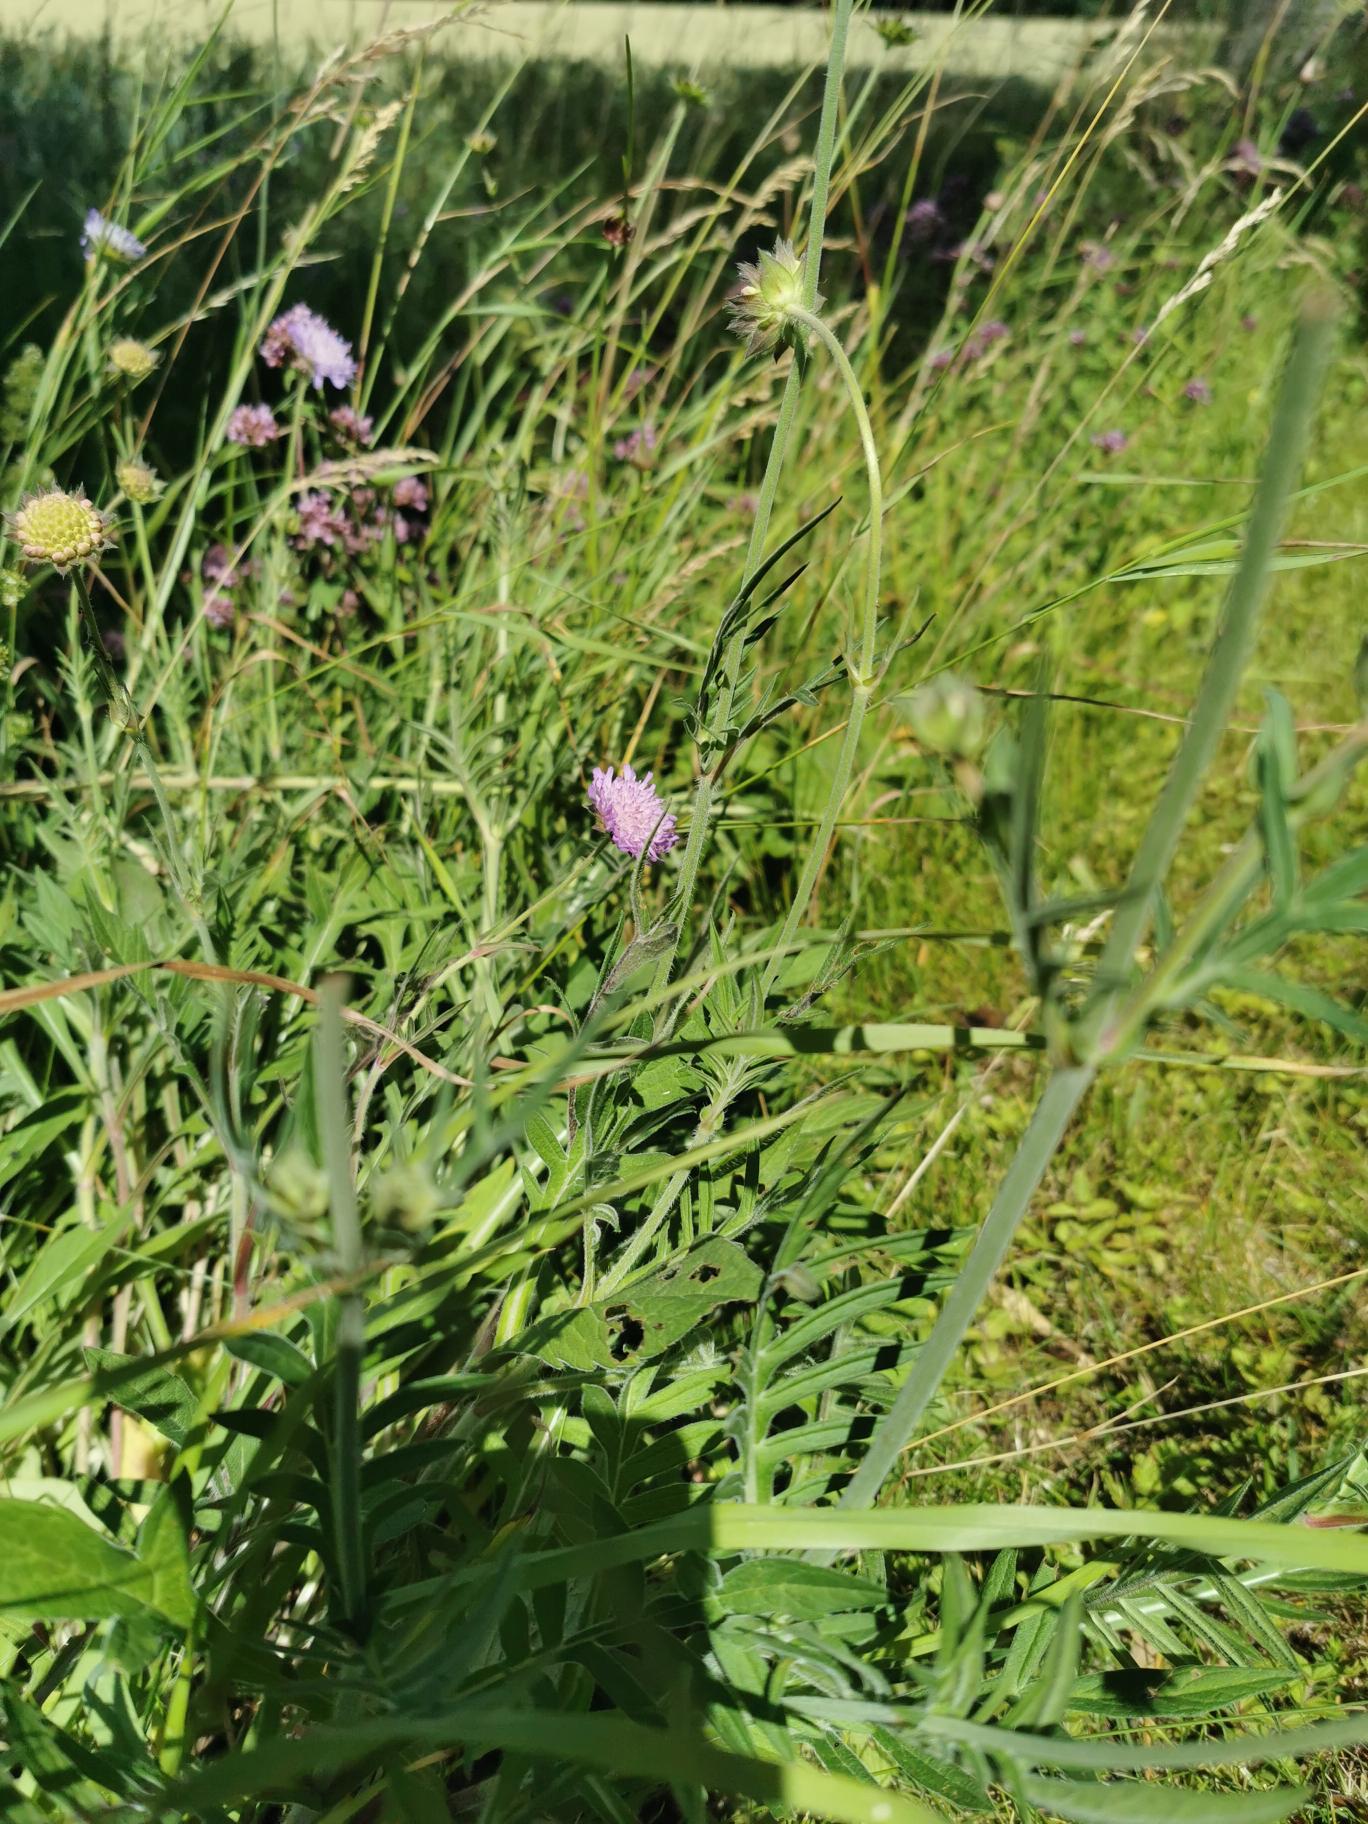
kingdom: Plantae
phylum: Tracheophyta
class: Magnoliopsida
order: Dipsacales
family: Caprifoliaceae
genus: Knautia
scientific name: Knautia arvensis
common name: Blåhat
